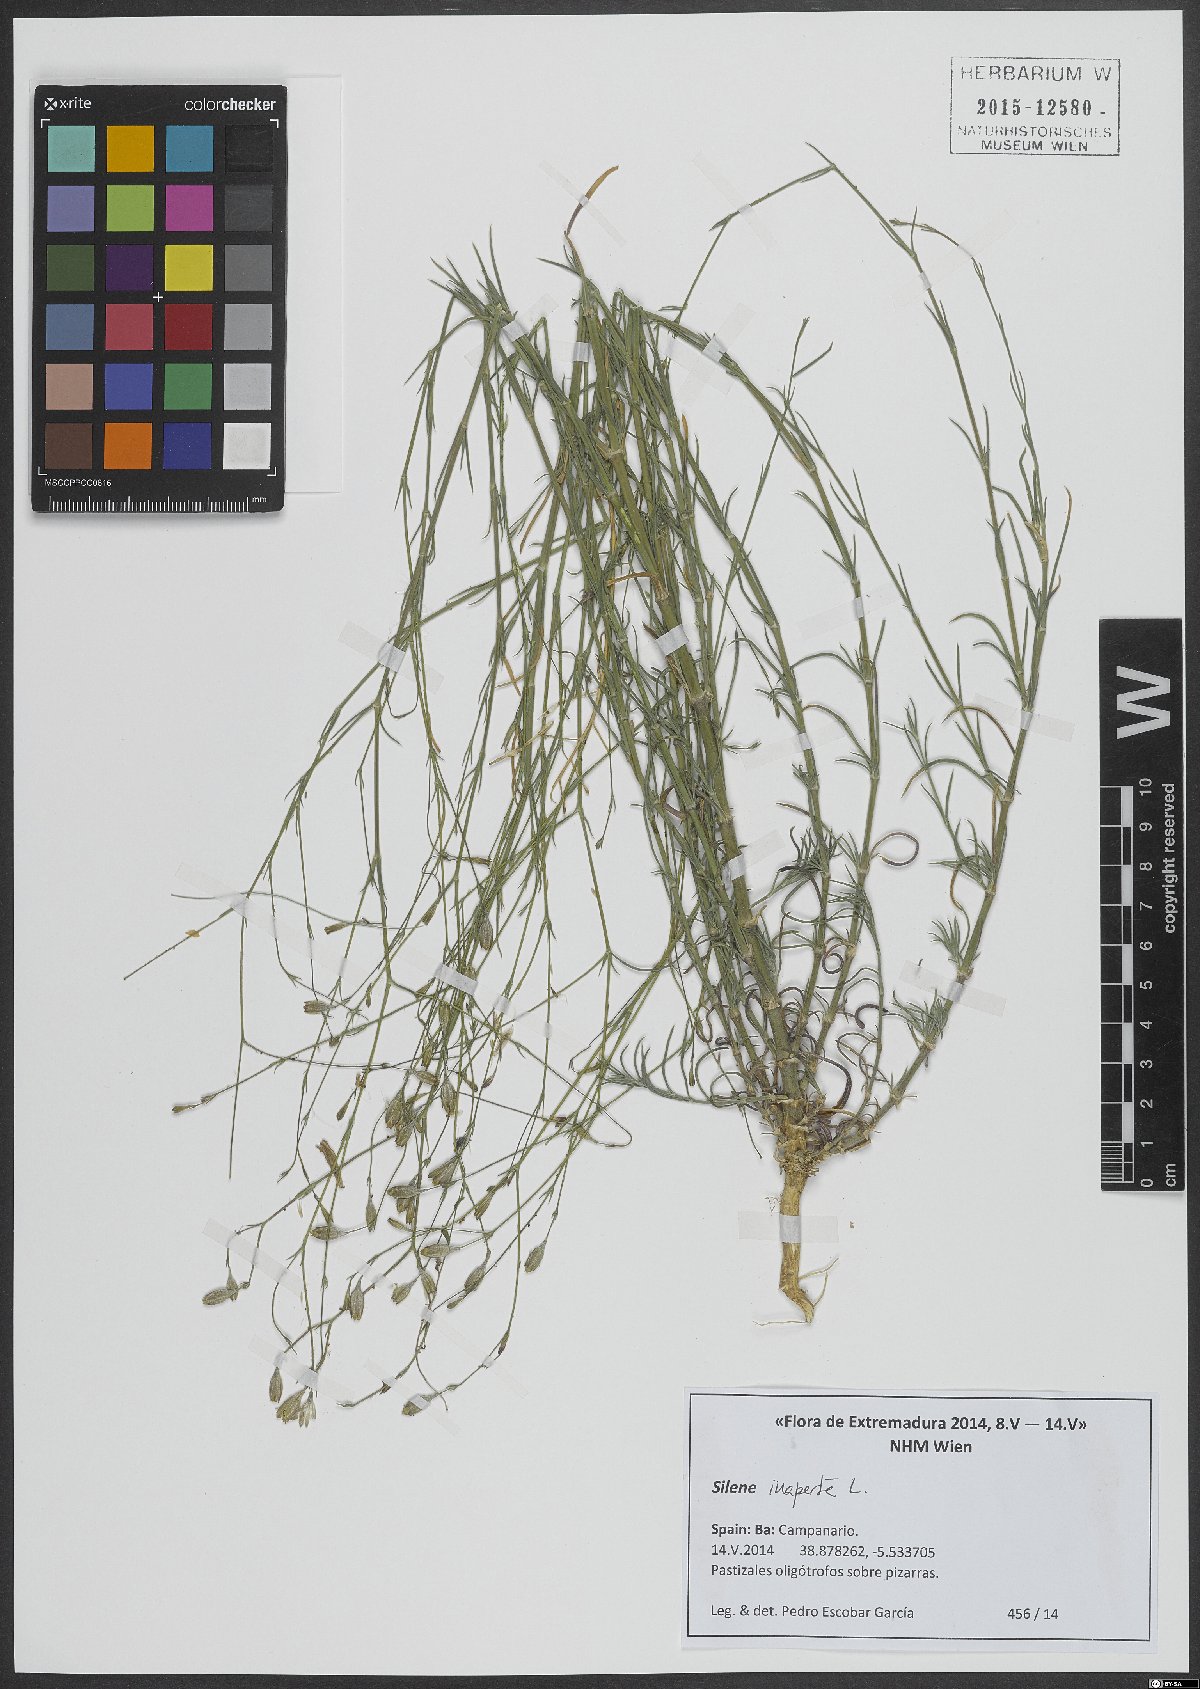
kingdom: Plantae
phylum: Tracheophyta
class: Magnoliopsida
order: Caryophyllales
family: Caryophyllaceae
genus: Silene
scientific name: Silene inaperta
